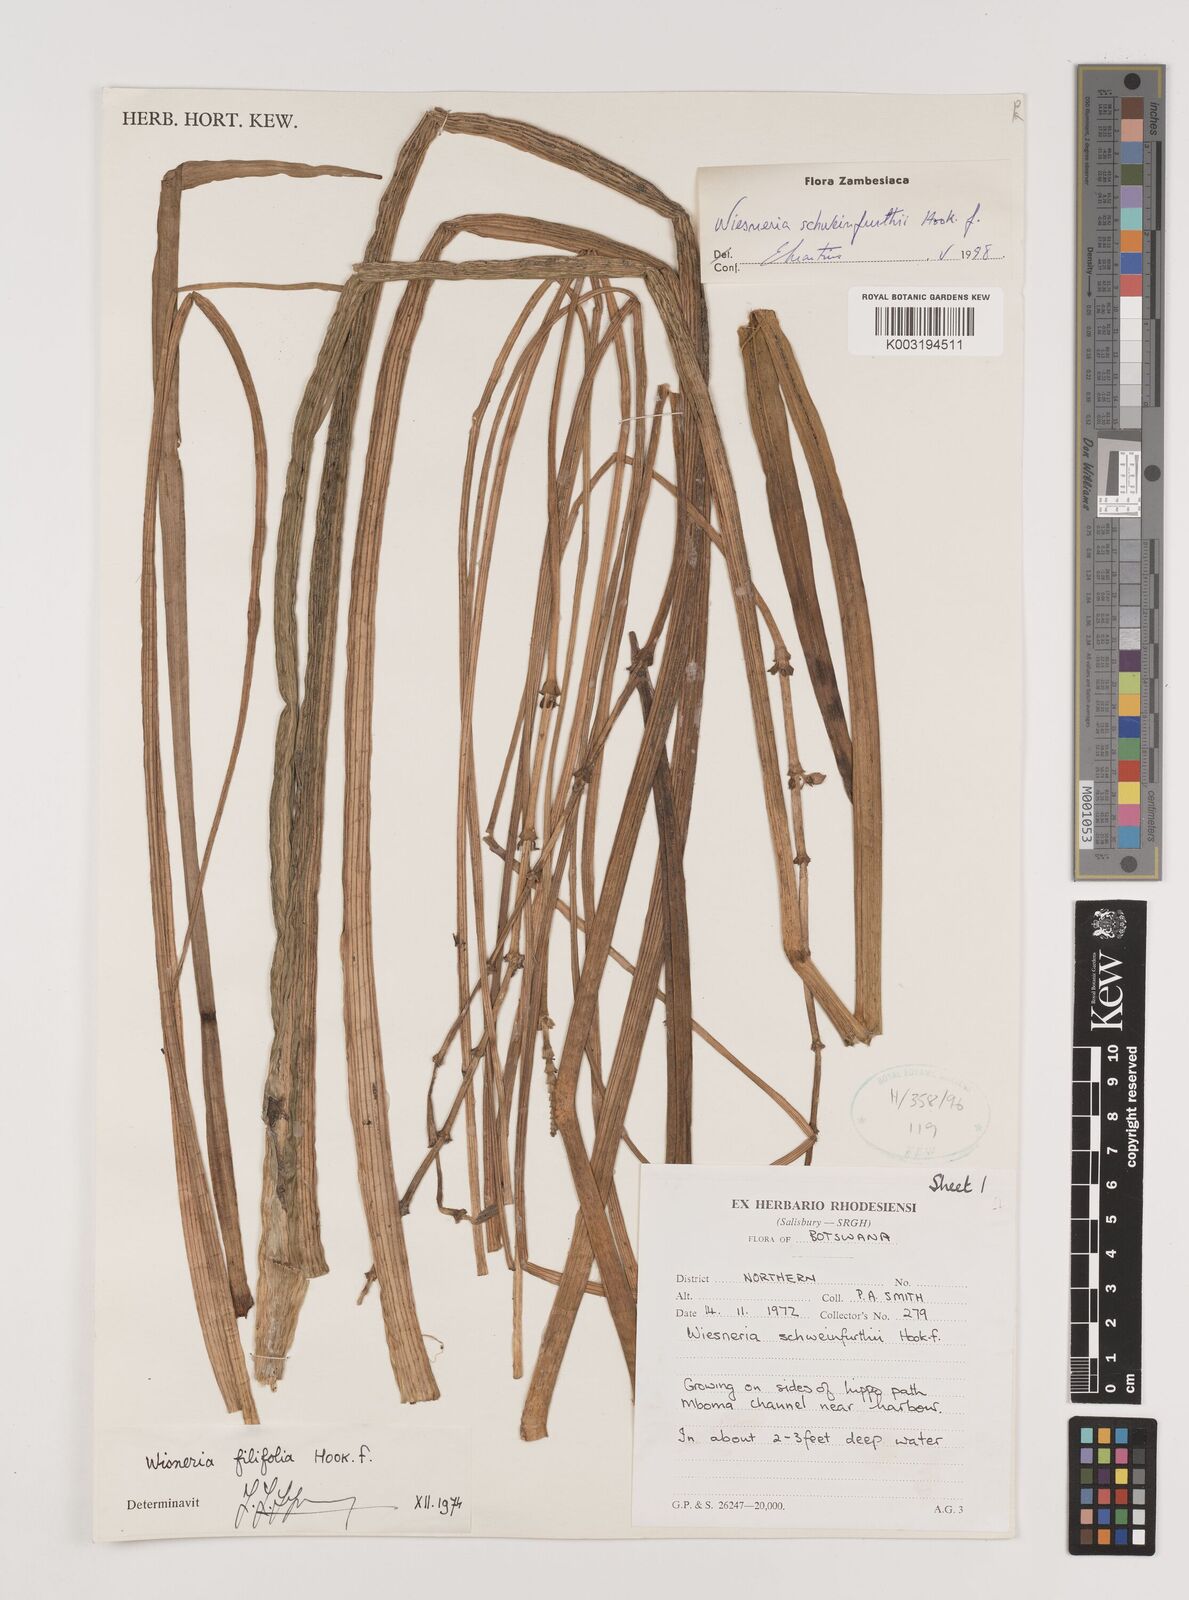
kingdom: Plantae
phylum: Tracheophyta
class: Liliopsida
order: Alismatales
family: Alismataceae
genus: Wiesneria
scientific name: Wiesneria schweinfurthii
